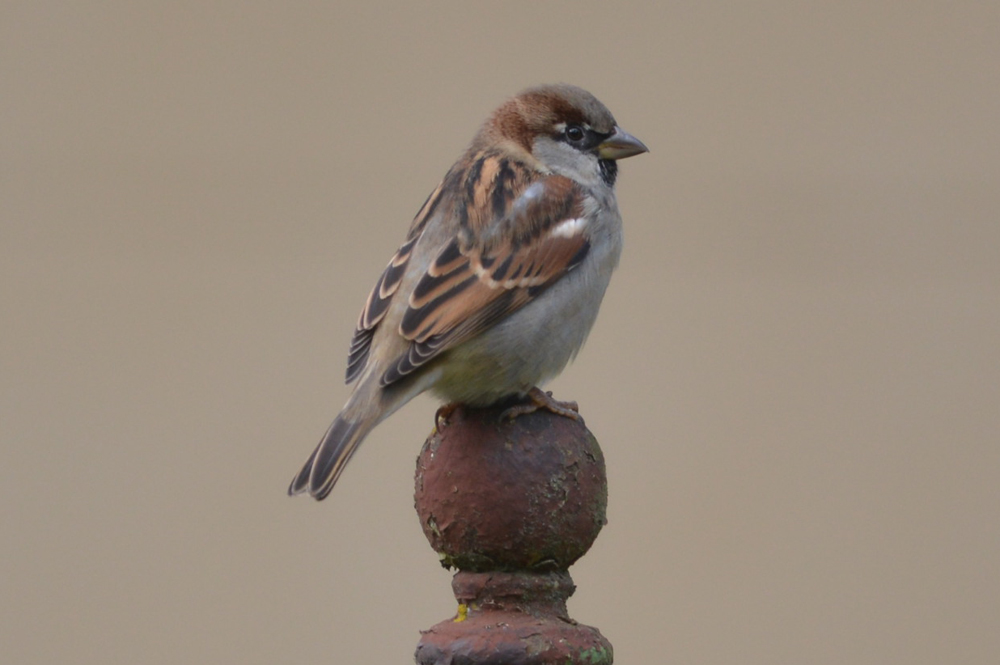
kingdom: Animalia
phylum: Chordata
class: Aves
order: Passeriformes
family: Passeridae
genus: Passer
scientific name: Passer domesticus
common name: House sparrow
